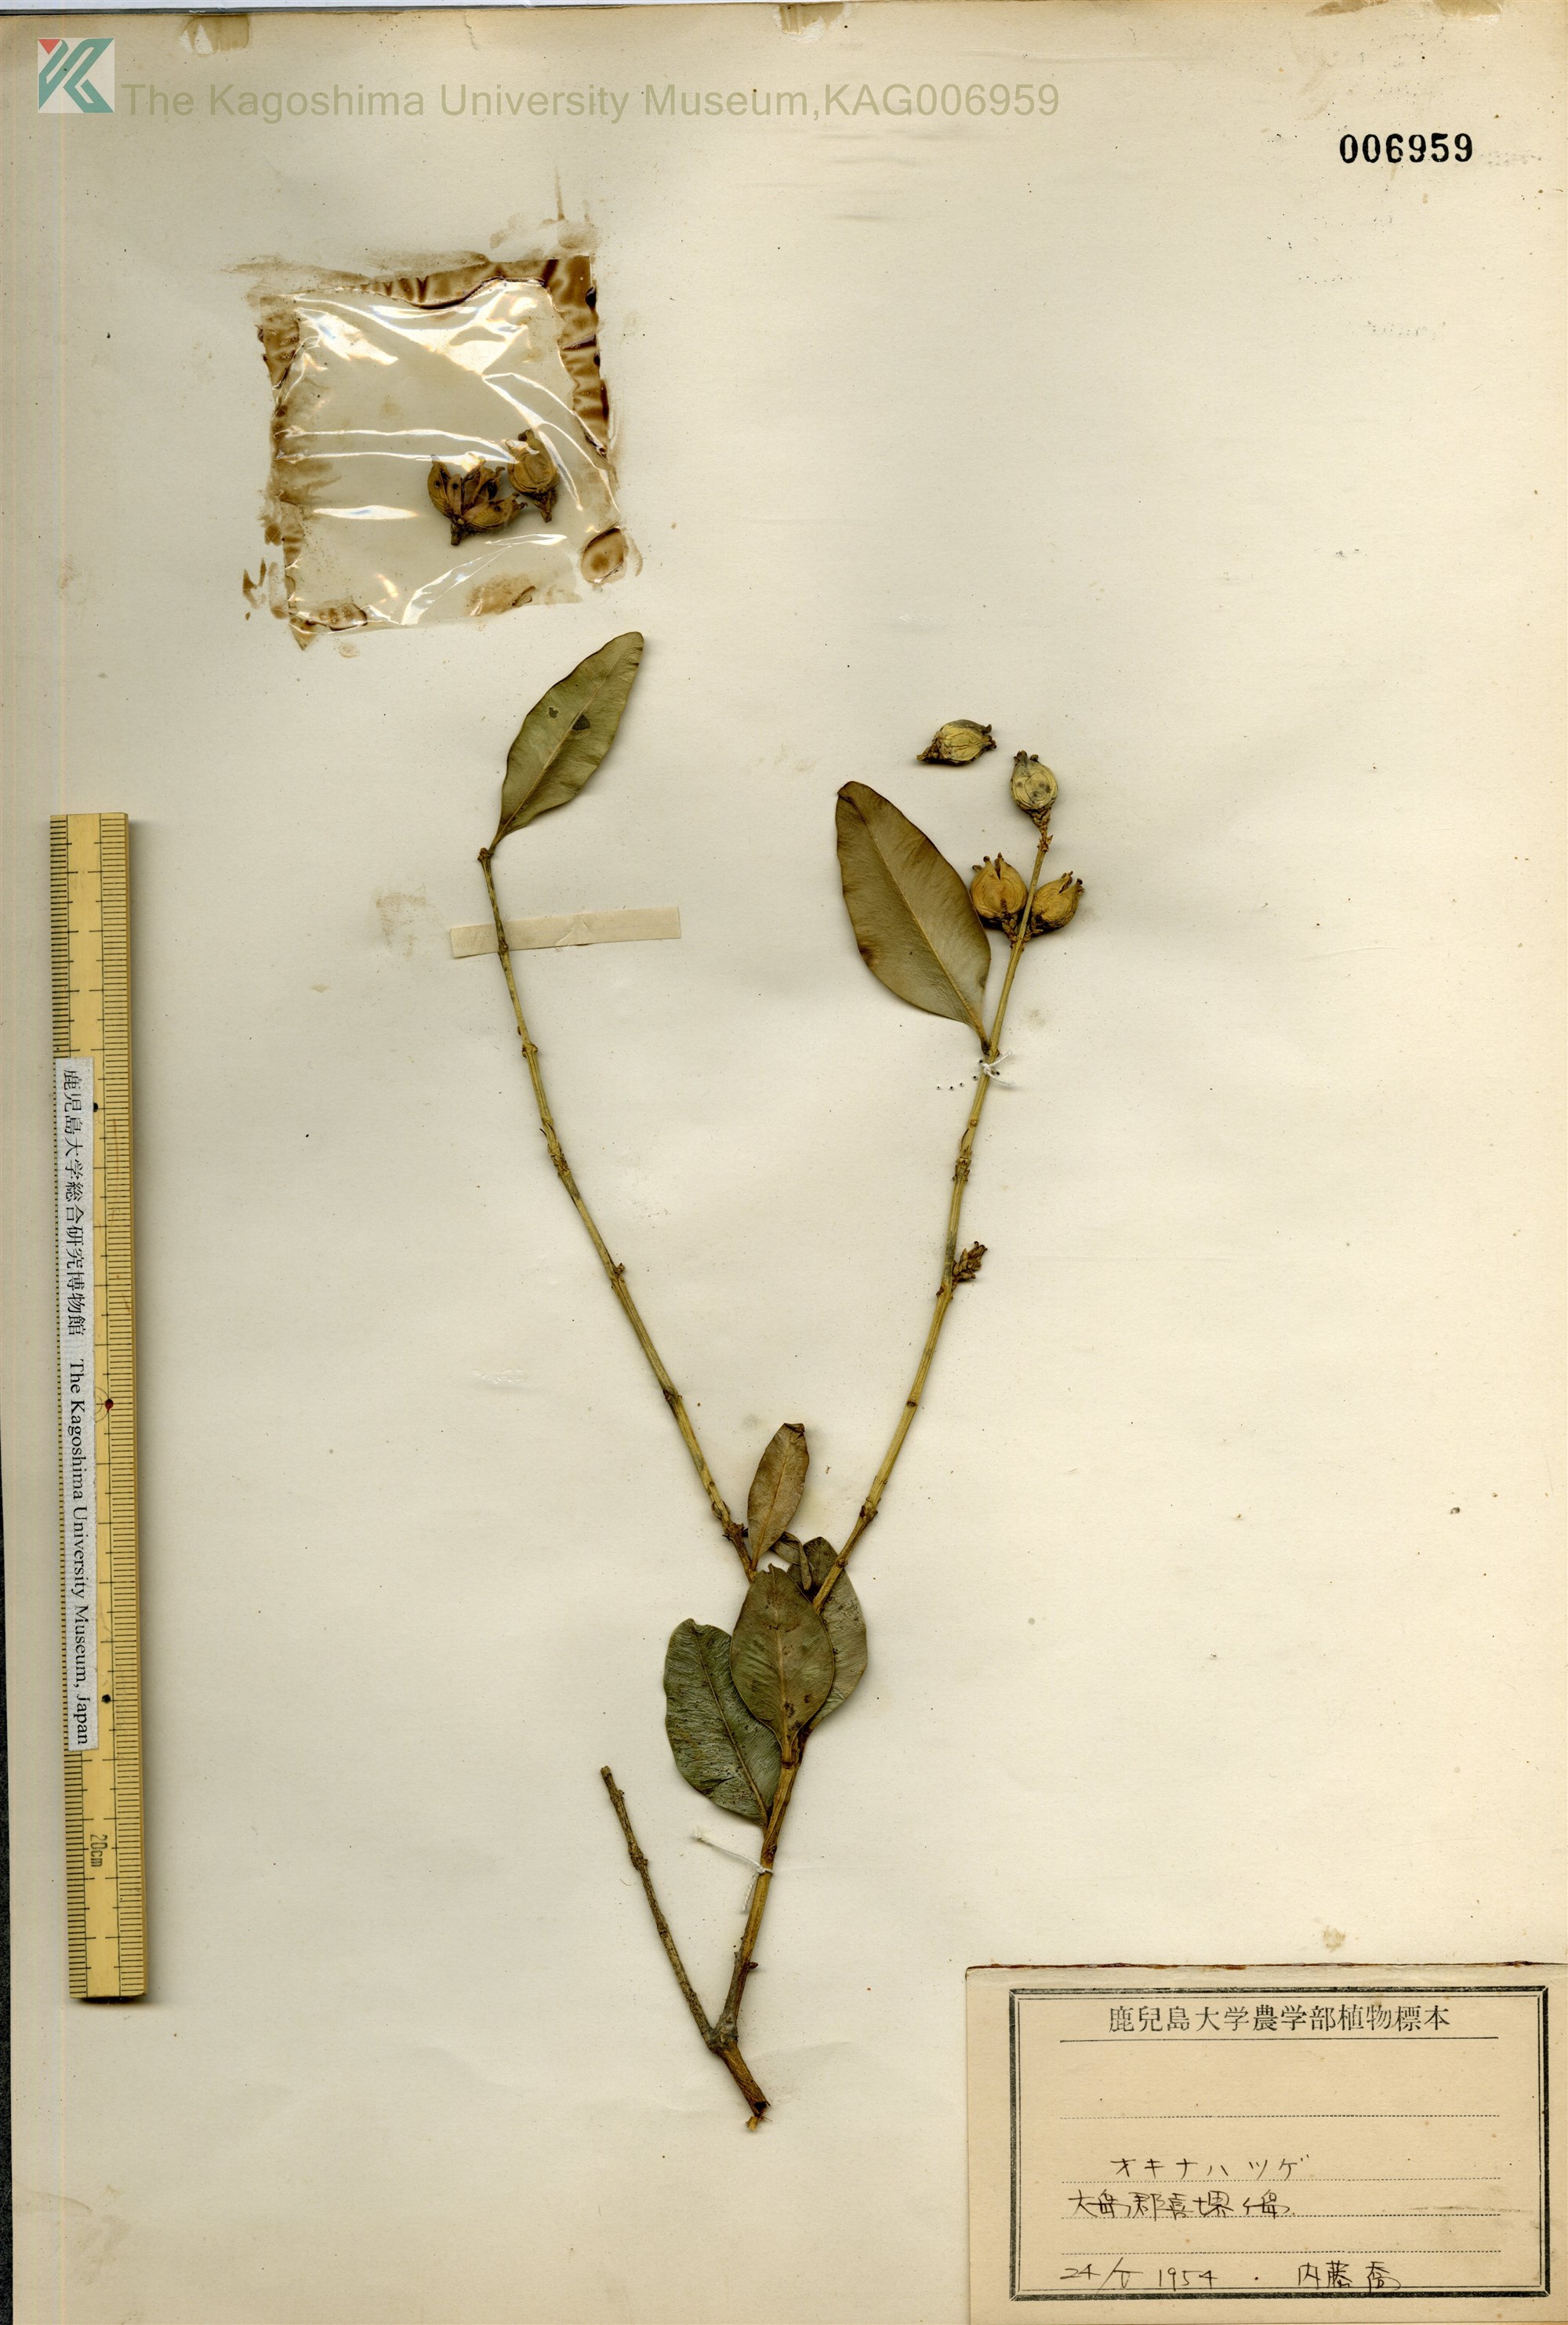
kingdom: Plantae
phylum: Tracheophyta
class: Magnoliopsida
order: Buxales
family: Buxaceae
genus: Buxus
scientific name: Buxus liukiuensis
